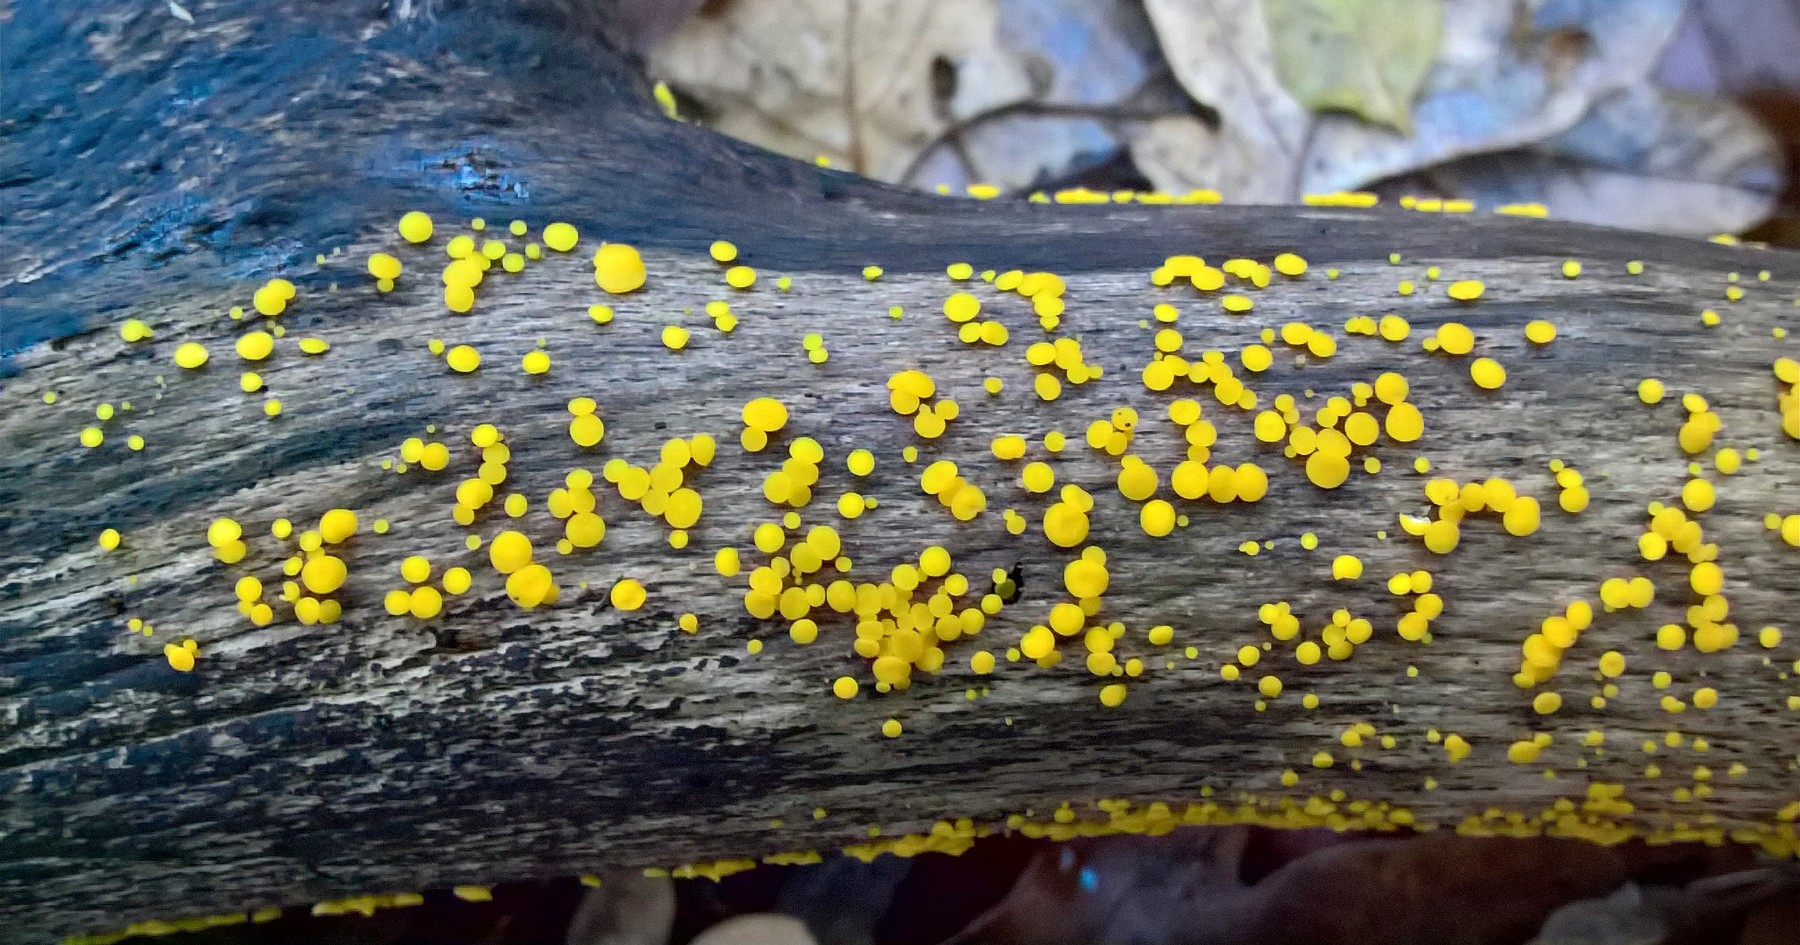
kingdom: Fungi
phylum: Ascomycota
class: Leotiomycetes
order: Helotiales
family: Pezizellaceae
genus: Calycina
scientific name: Calycina citrina
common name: almindelig gulskive
